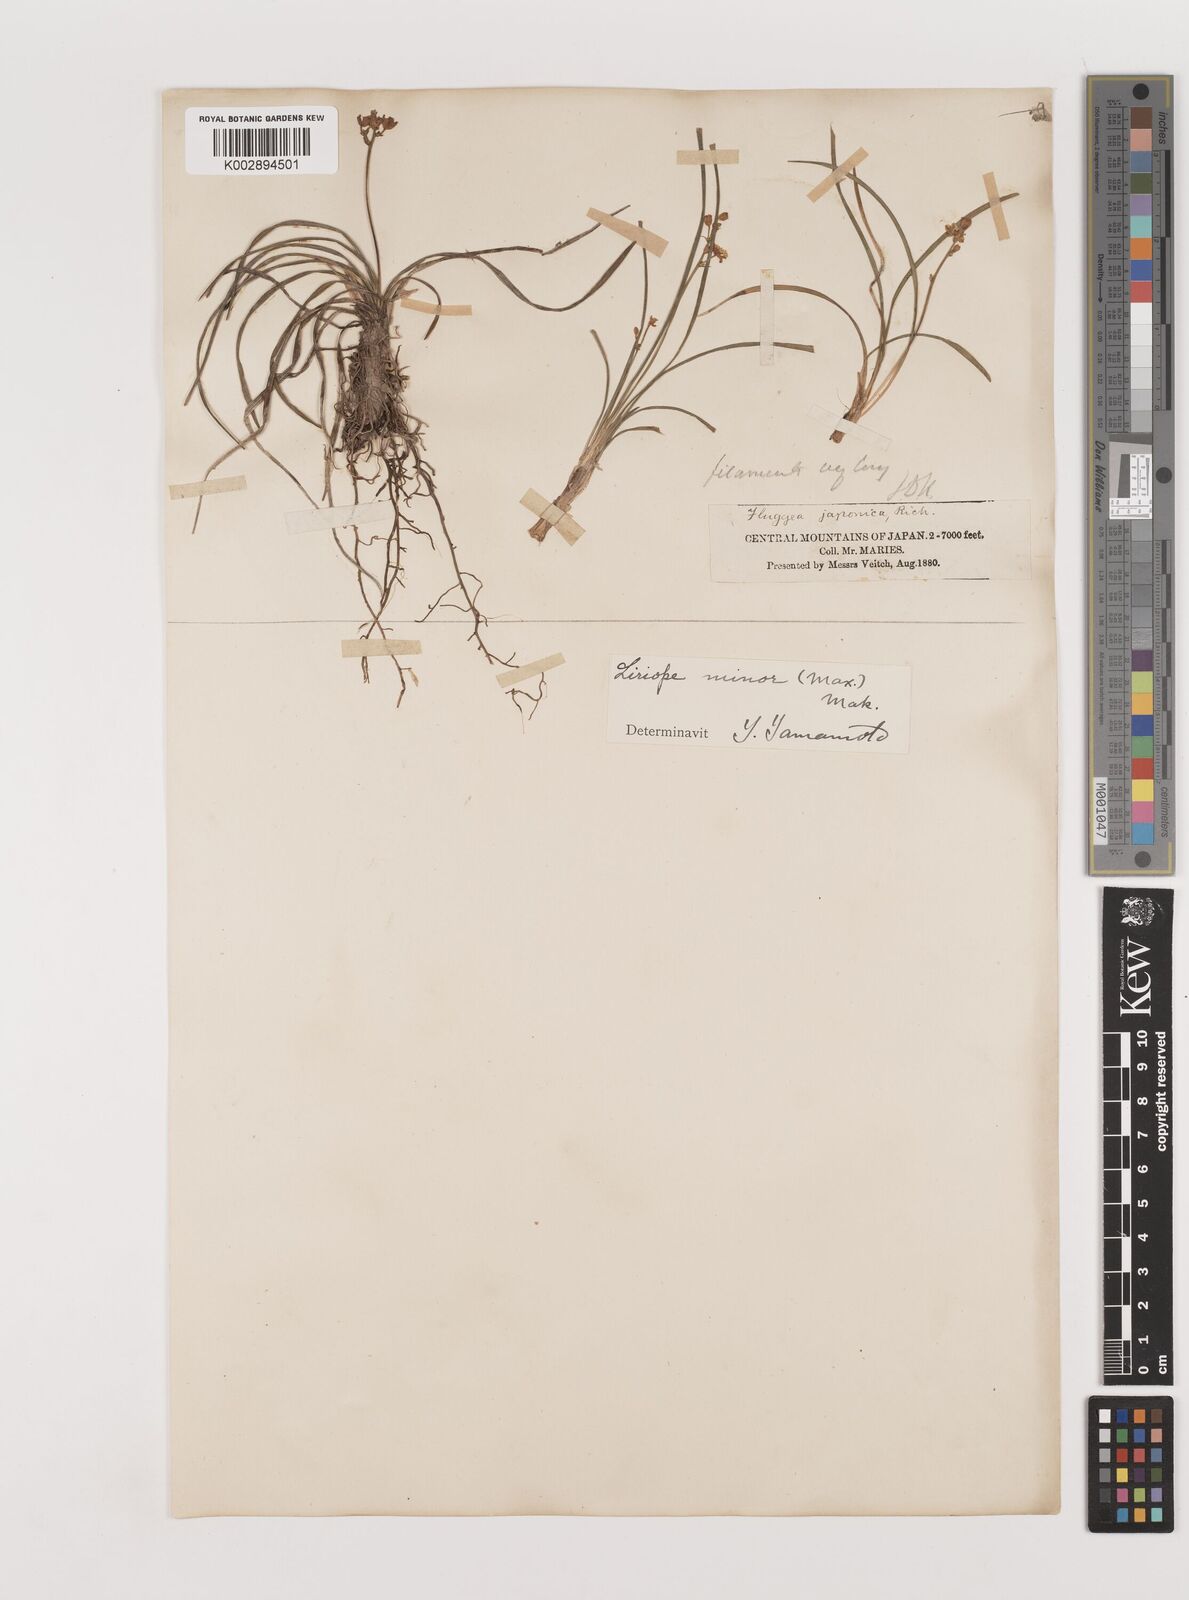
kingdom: Plantae
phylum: Tracheophyta
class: Liliopsida
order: Asparagales
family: Asparagaceae
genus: Liriope
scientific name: Liriope minor
